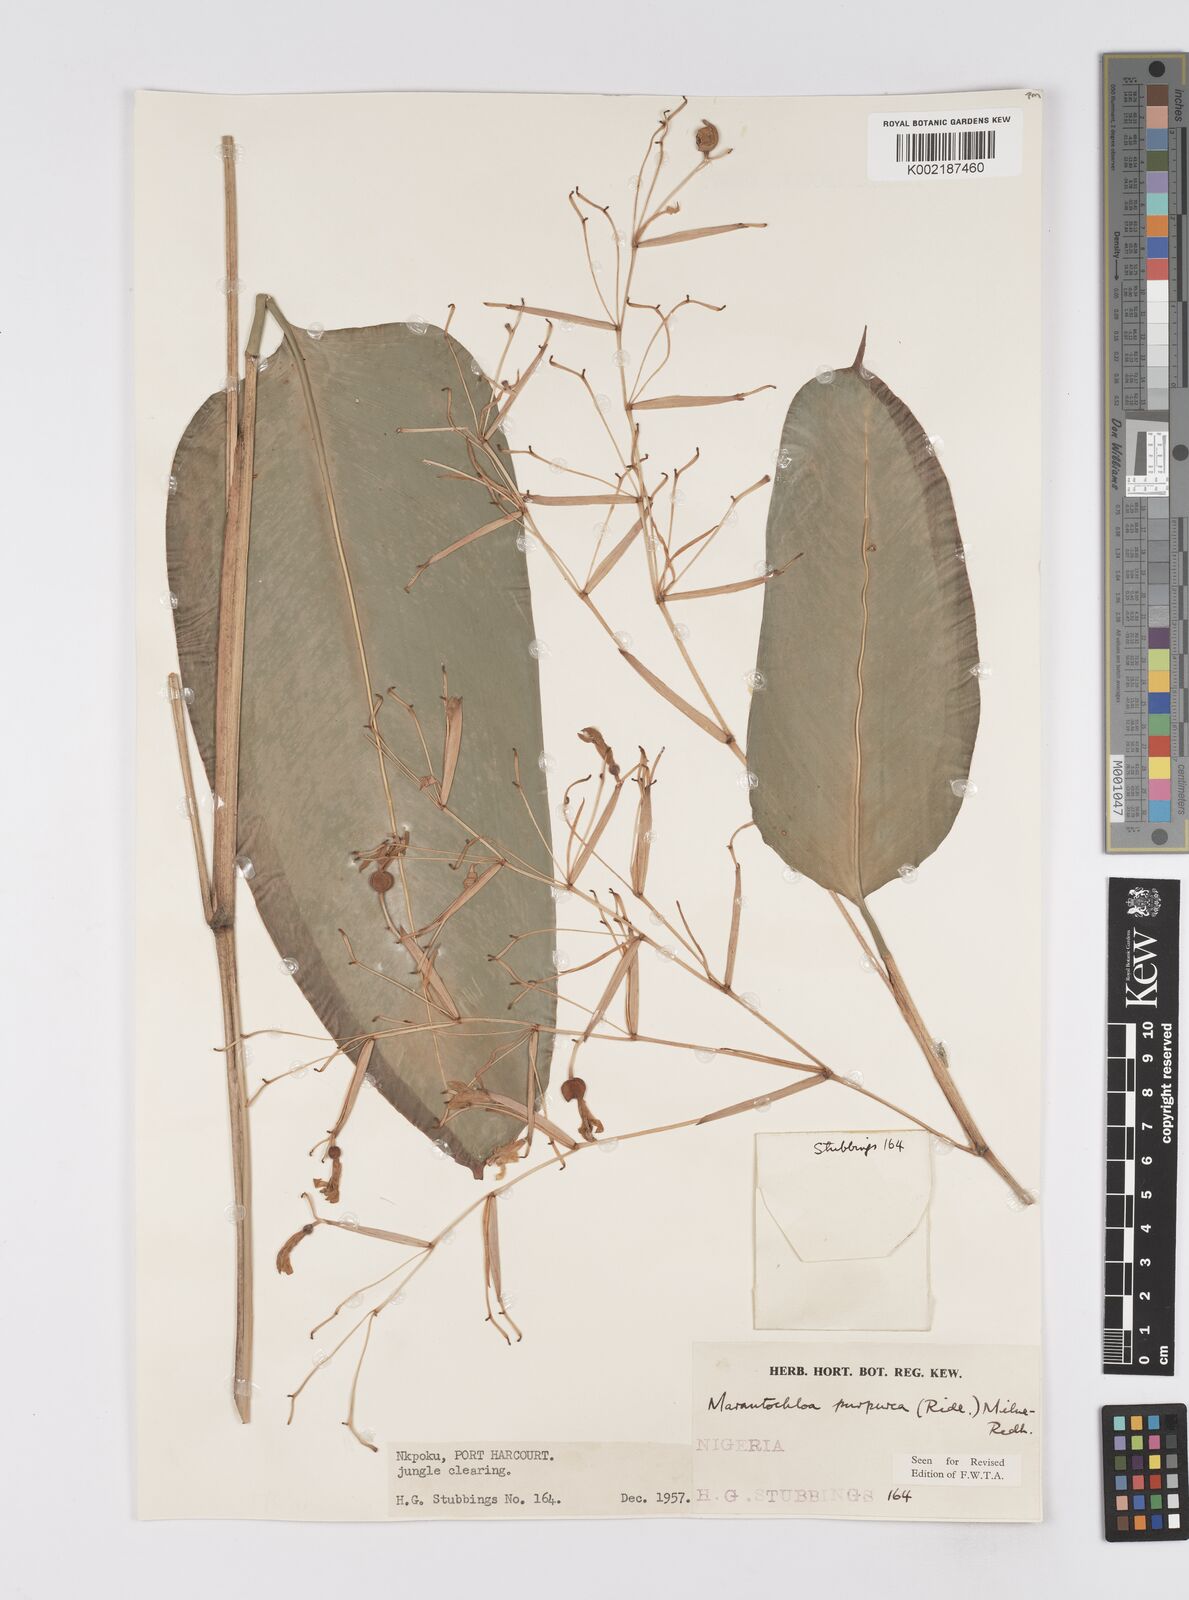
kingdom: Plantae
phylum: Tracheophyta
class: Liliopsida
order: Zingiberales
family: Marantaceae
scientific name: Marantaceae
